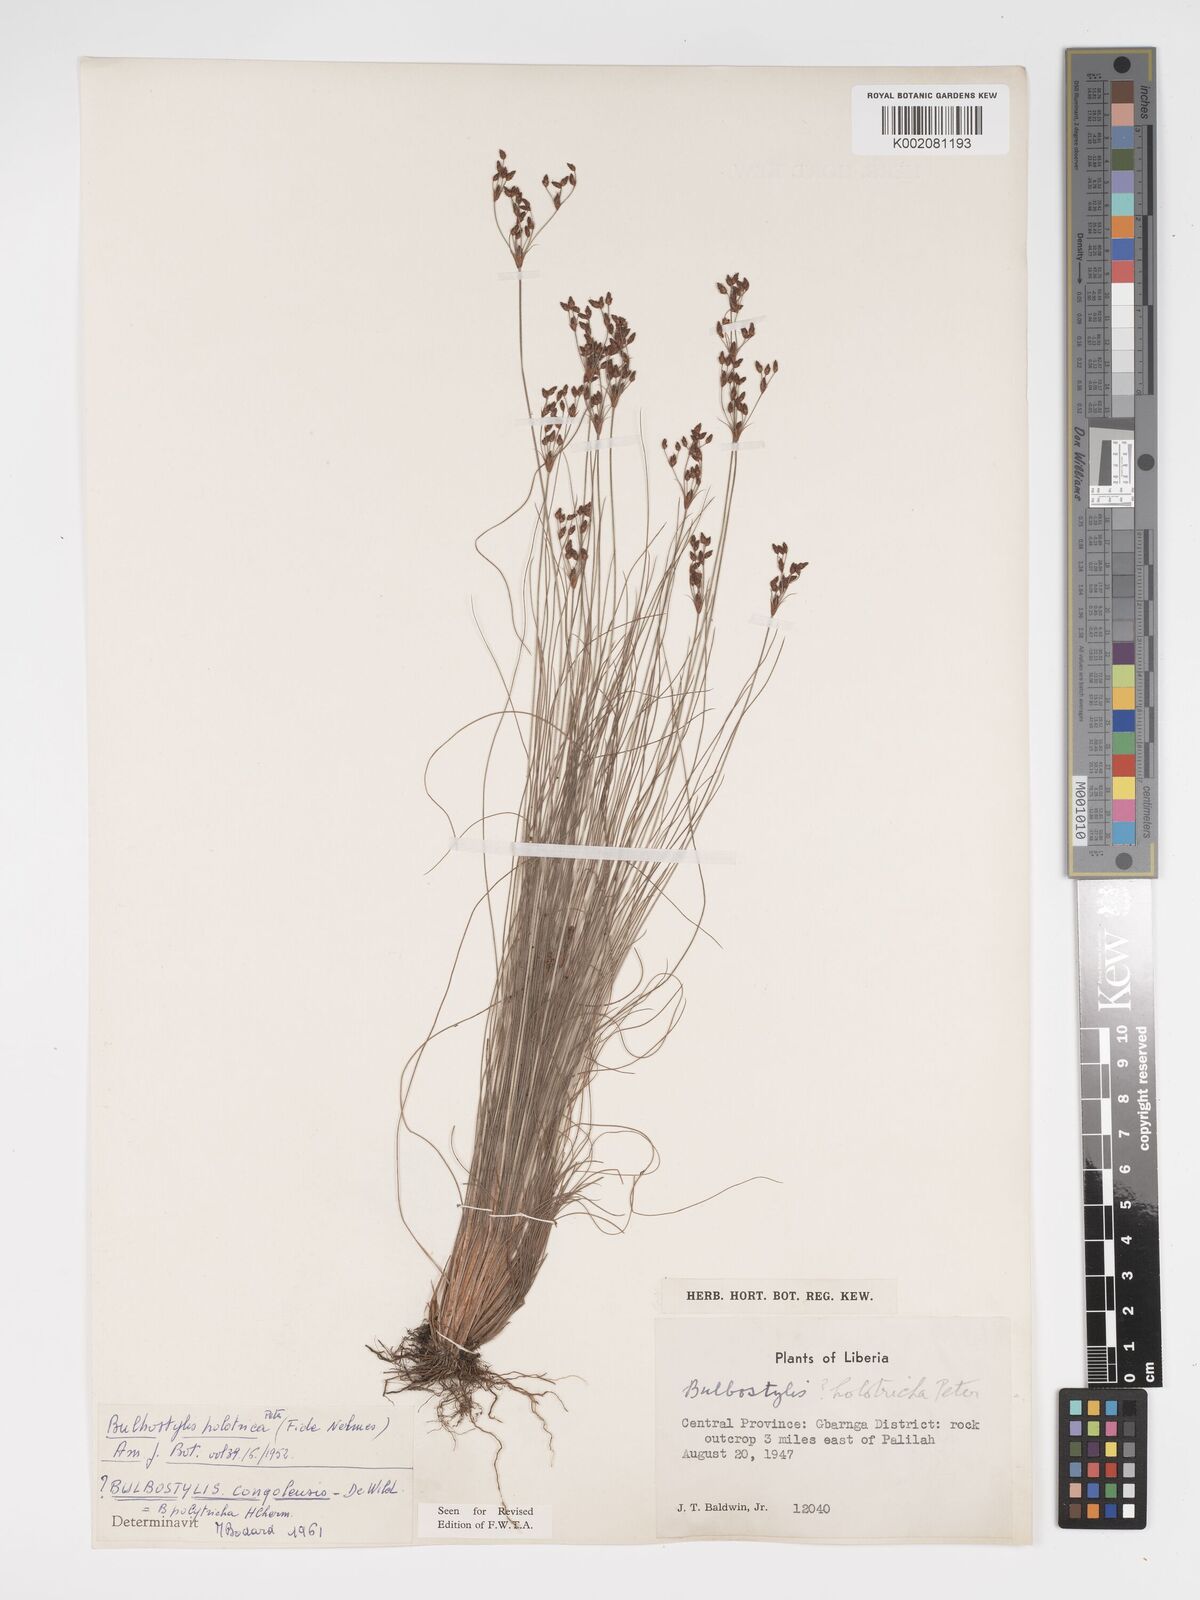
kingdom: Plantae
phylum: Tracheophyta
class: Liliopsida
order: Poales
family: Cyperaceae
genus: Bulbostylis
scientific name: Bulbostylis congolensis
